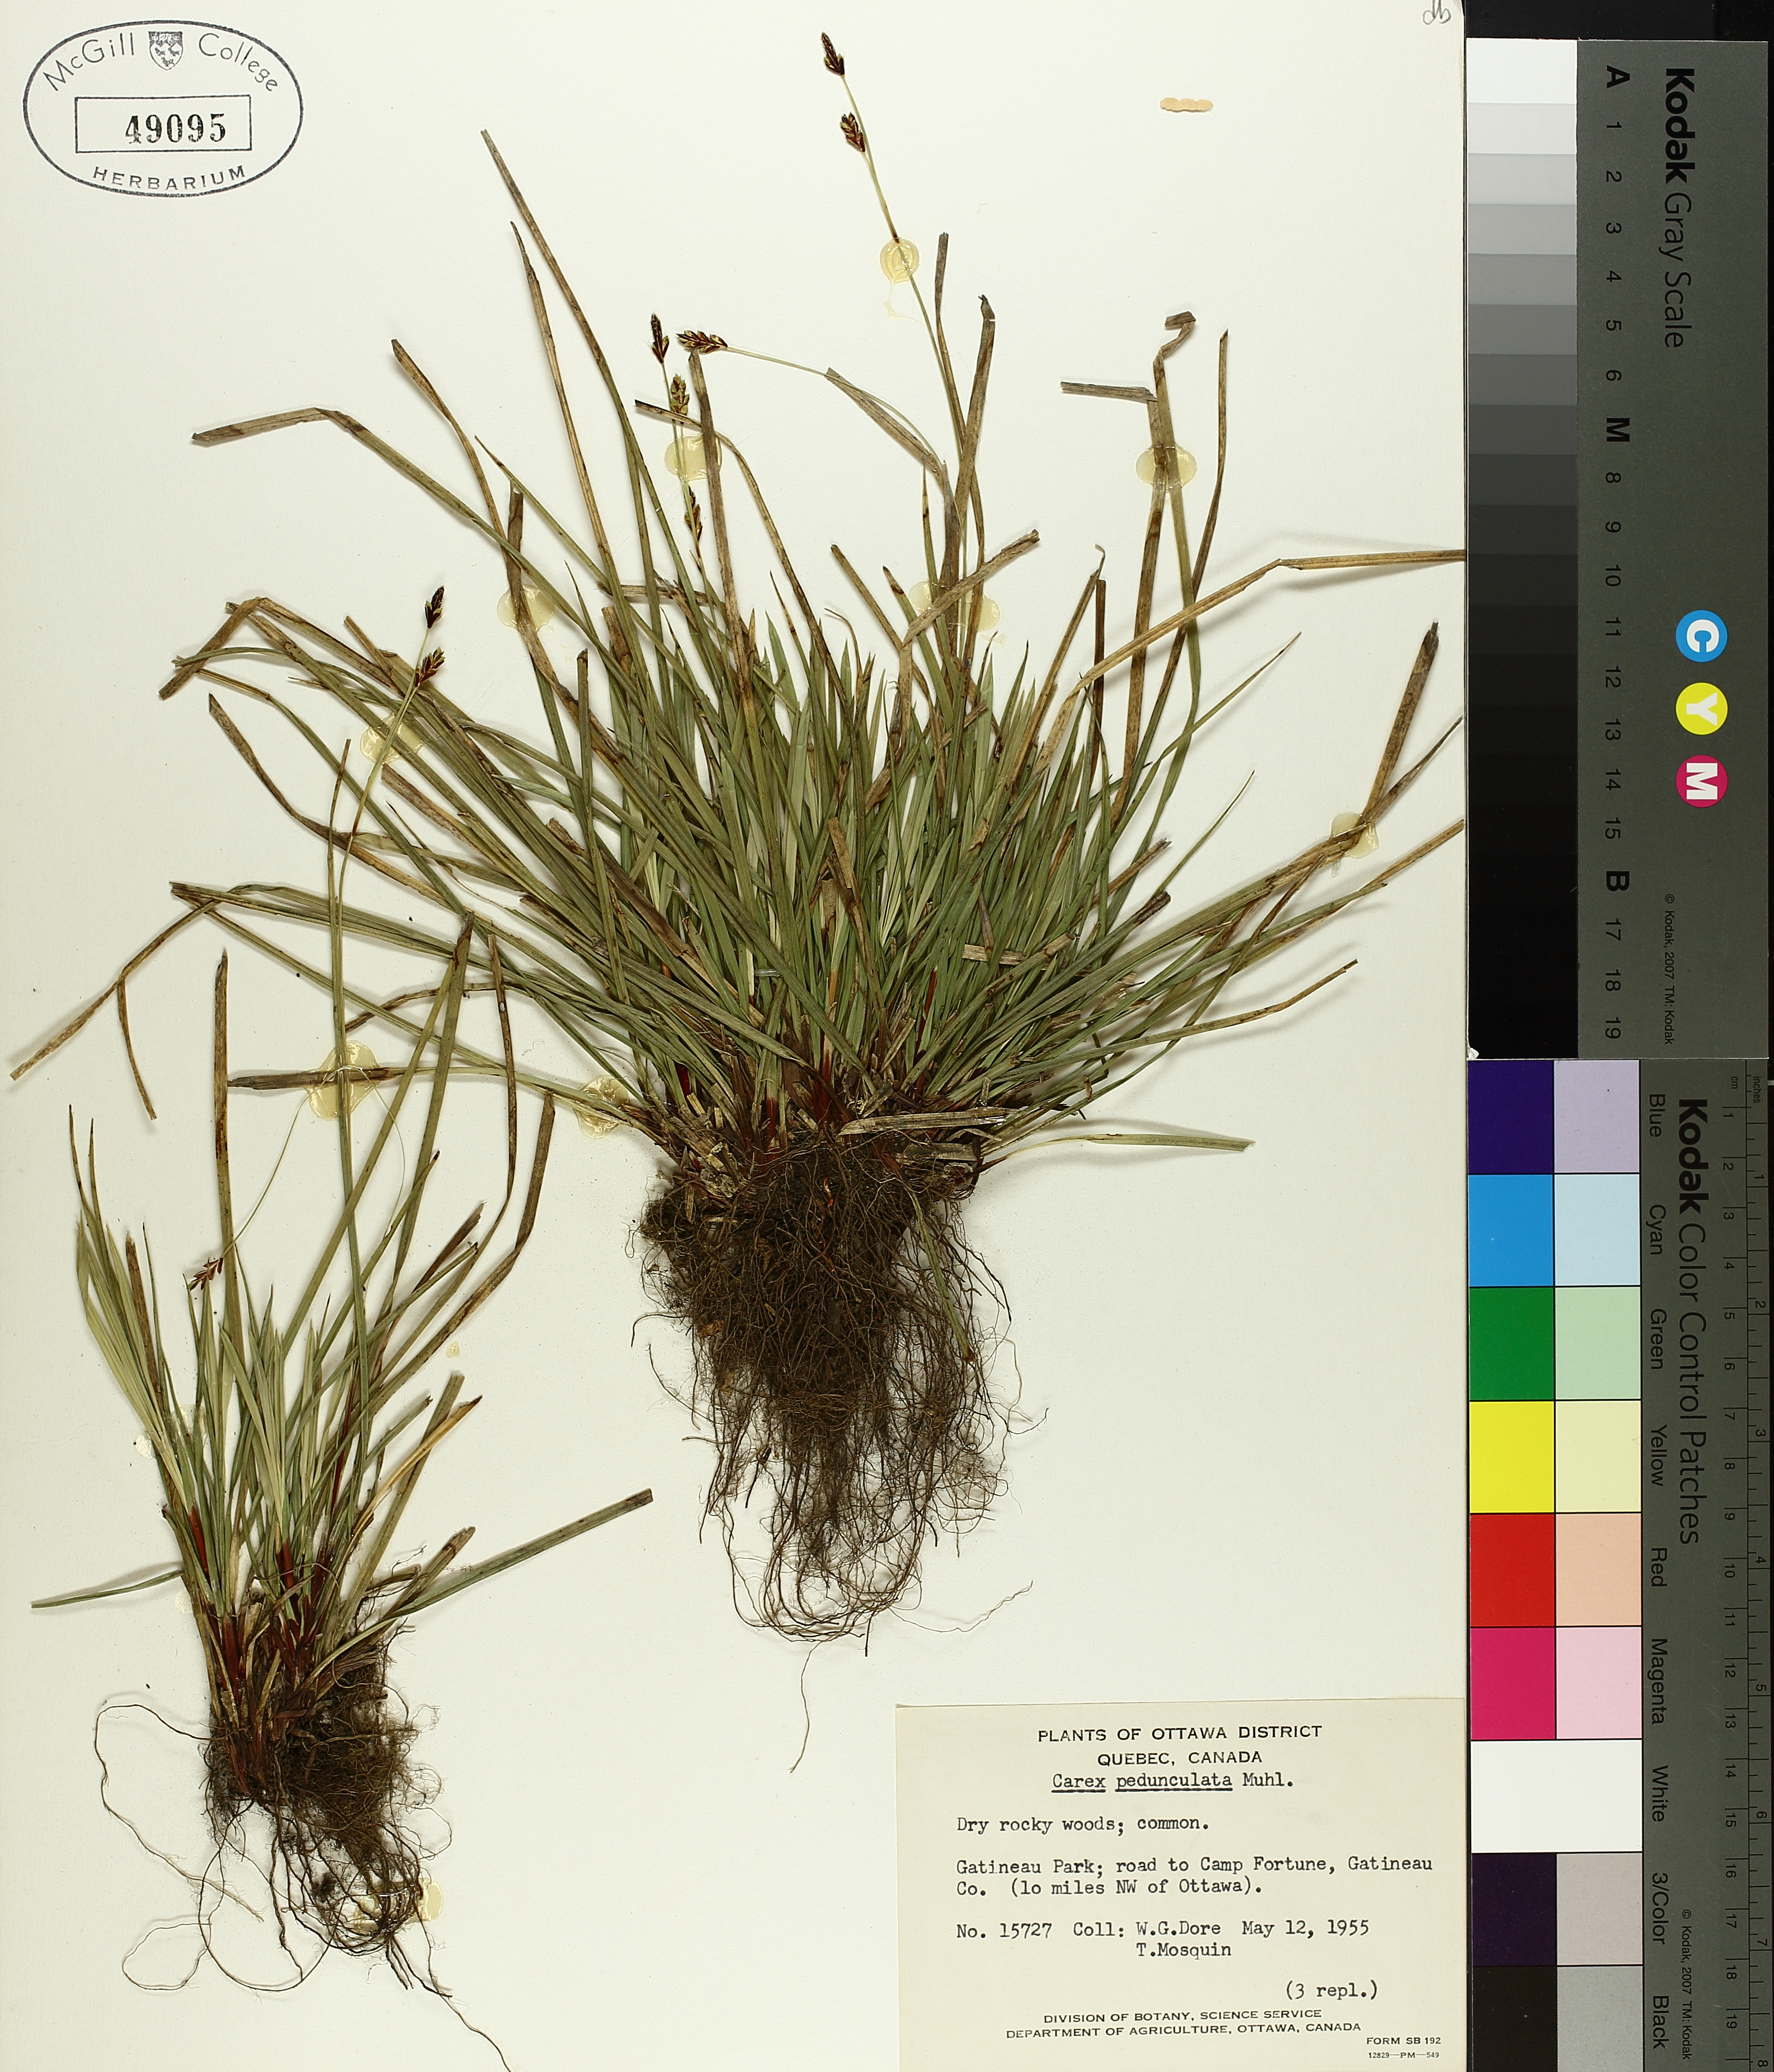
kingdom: Plantae
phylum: Tracheophyta
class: Liliopsida
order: Poales
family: Cyperaceae
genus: Carex
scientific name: Carex pedunculata
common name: Pedunculate sedge
